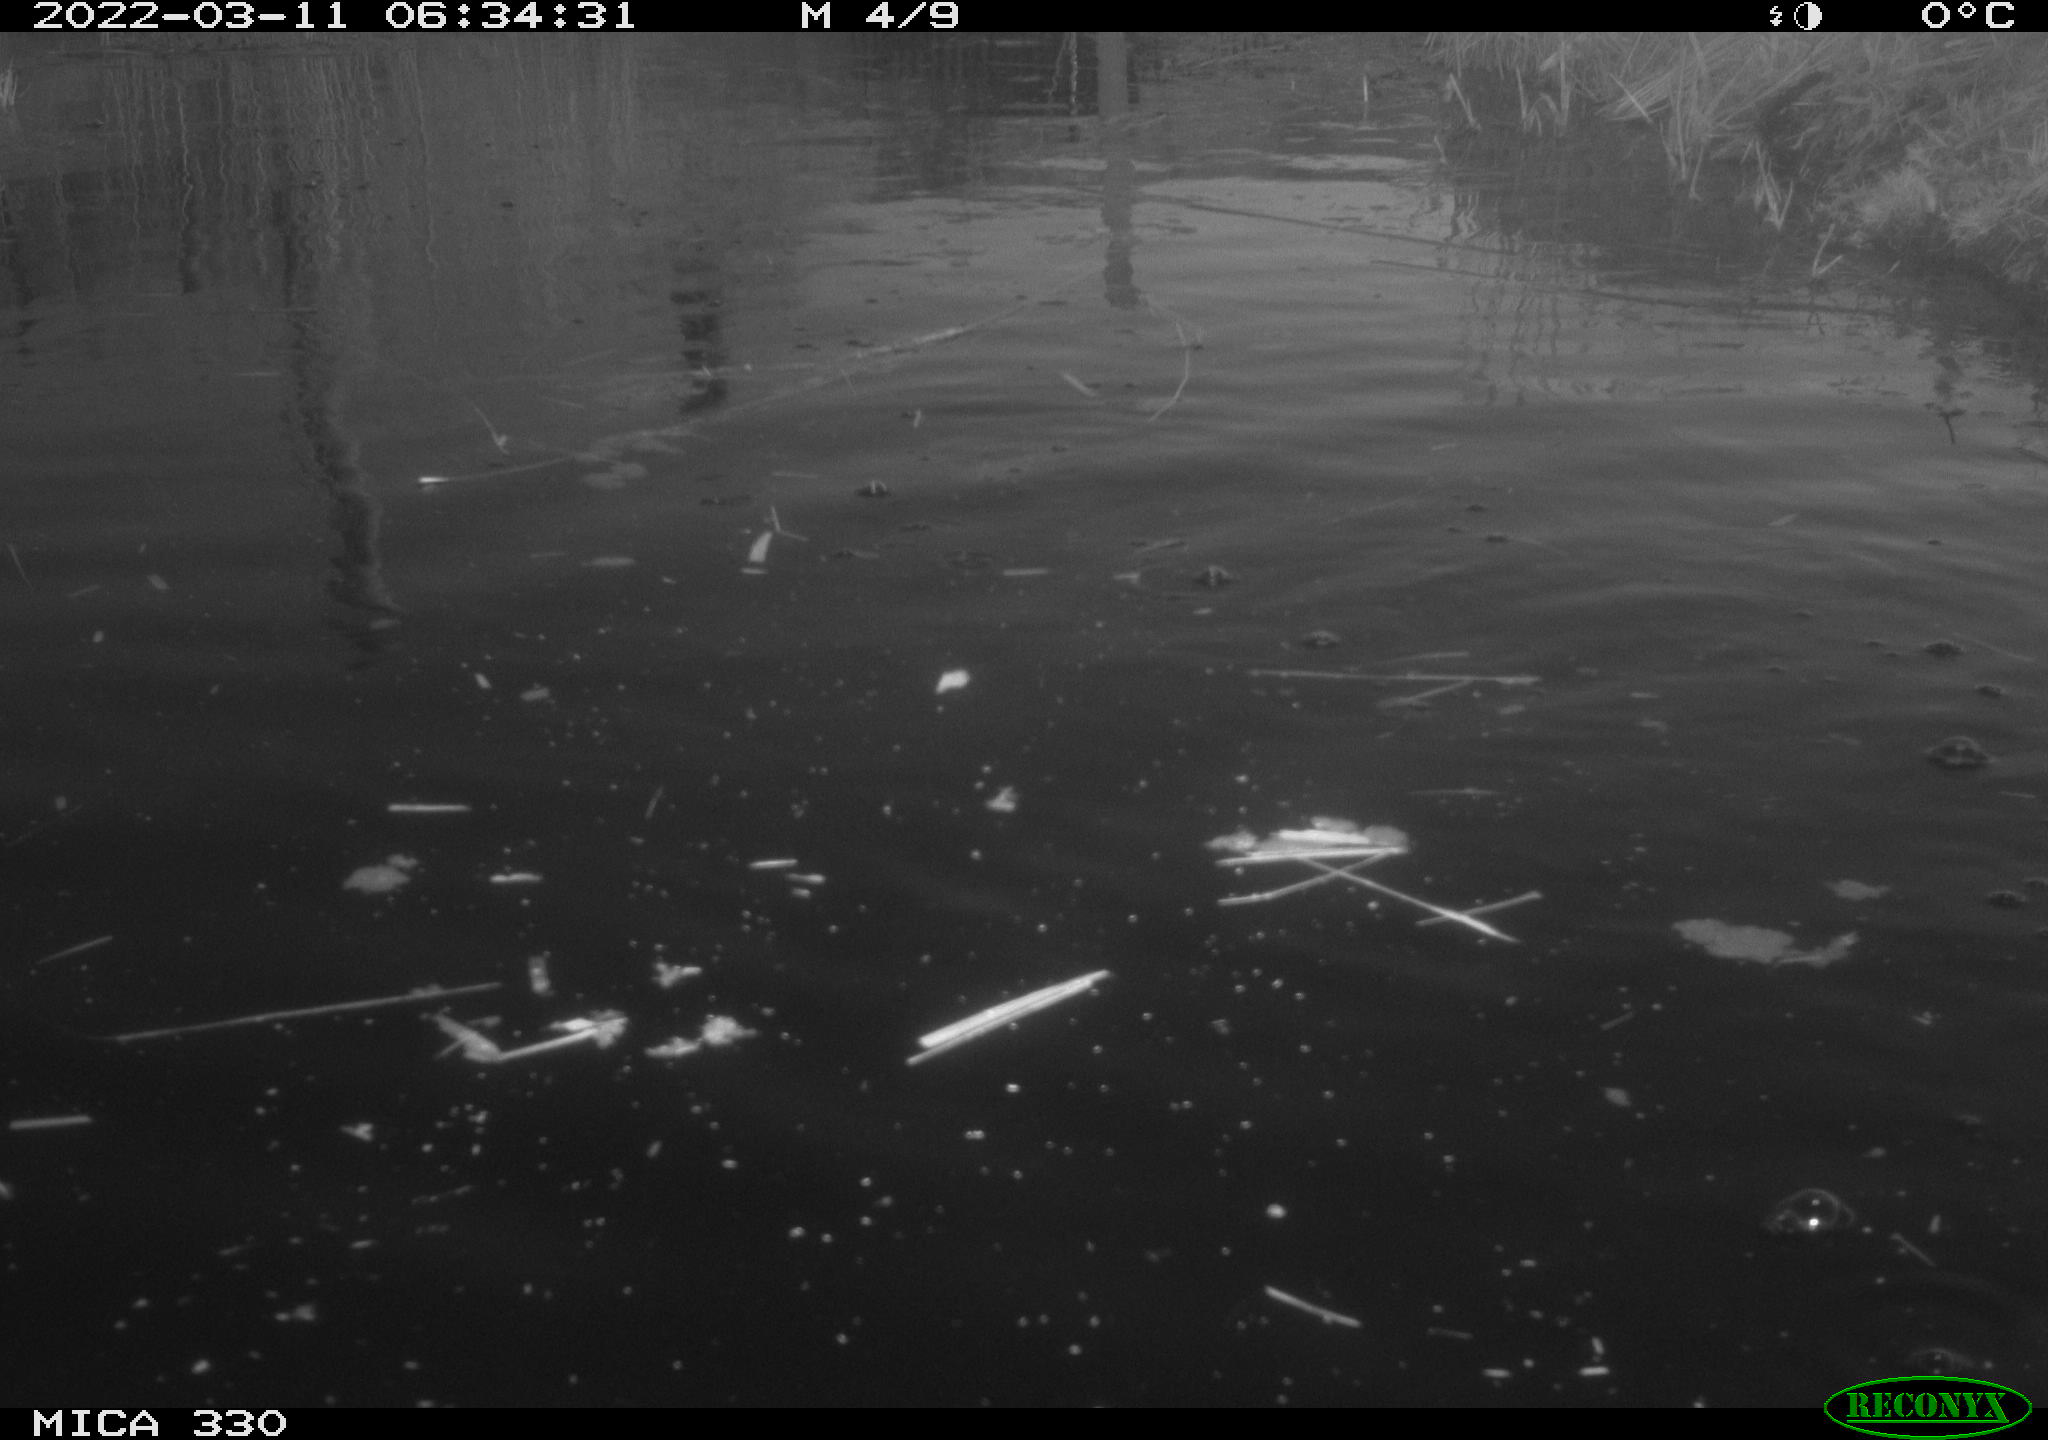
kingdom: Animalia
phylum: Chordata
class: Aves
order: Gruiformes
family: Rallidae
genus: Fulica
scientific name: Fulica atra
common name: Eurasian coot
